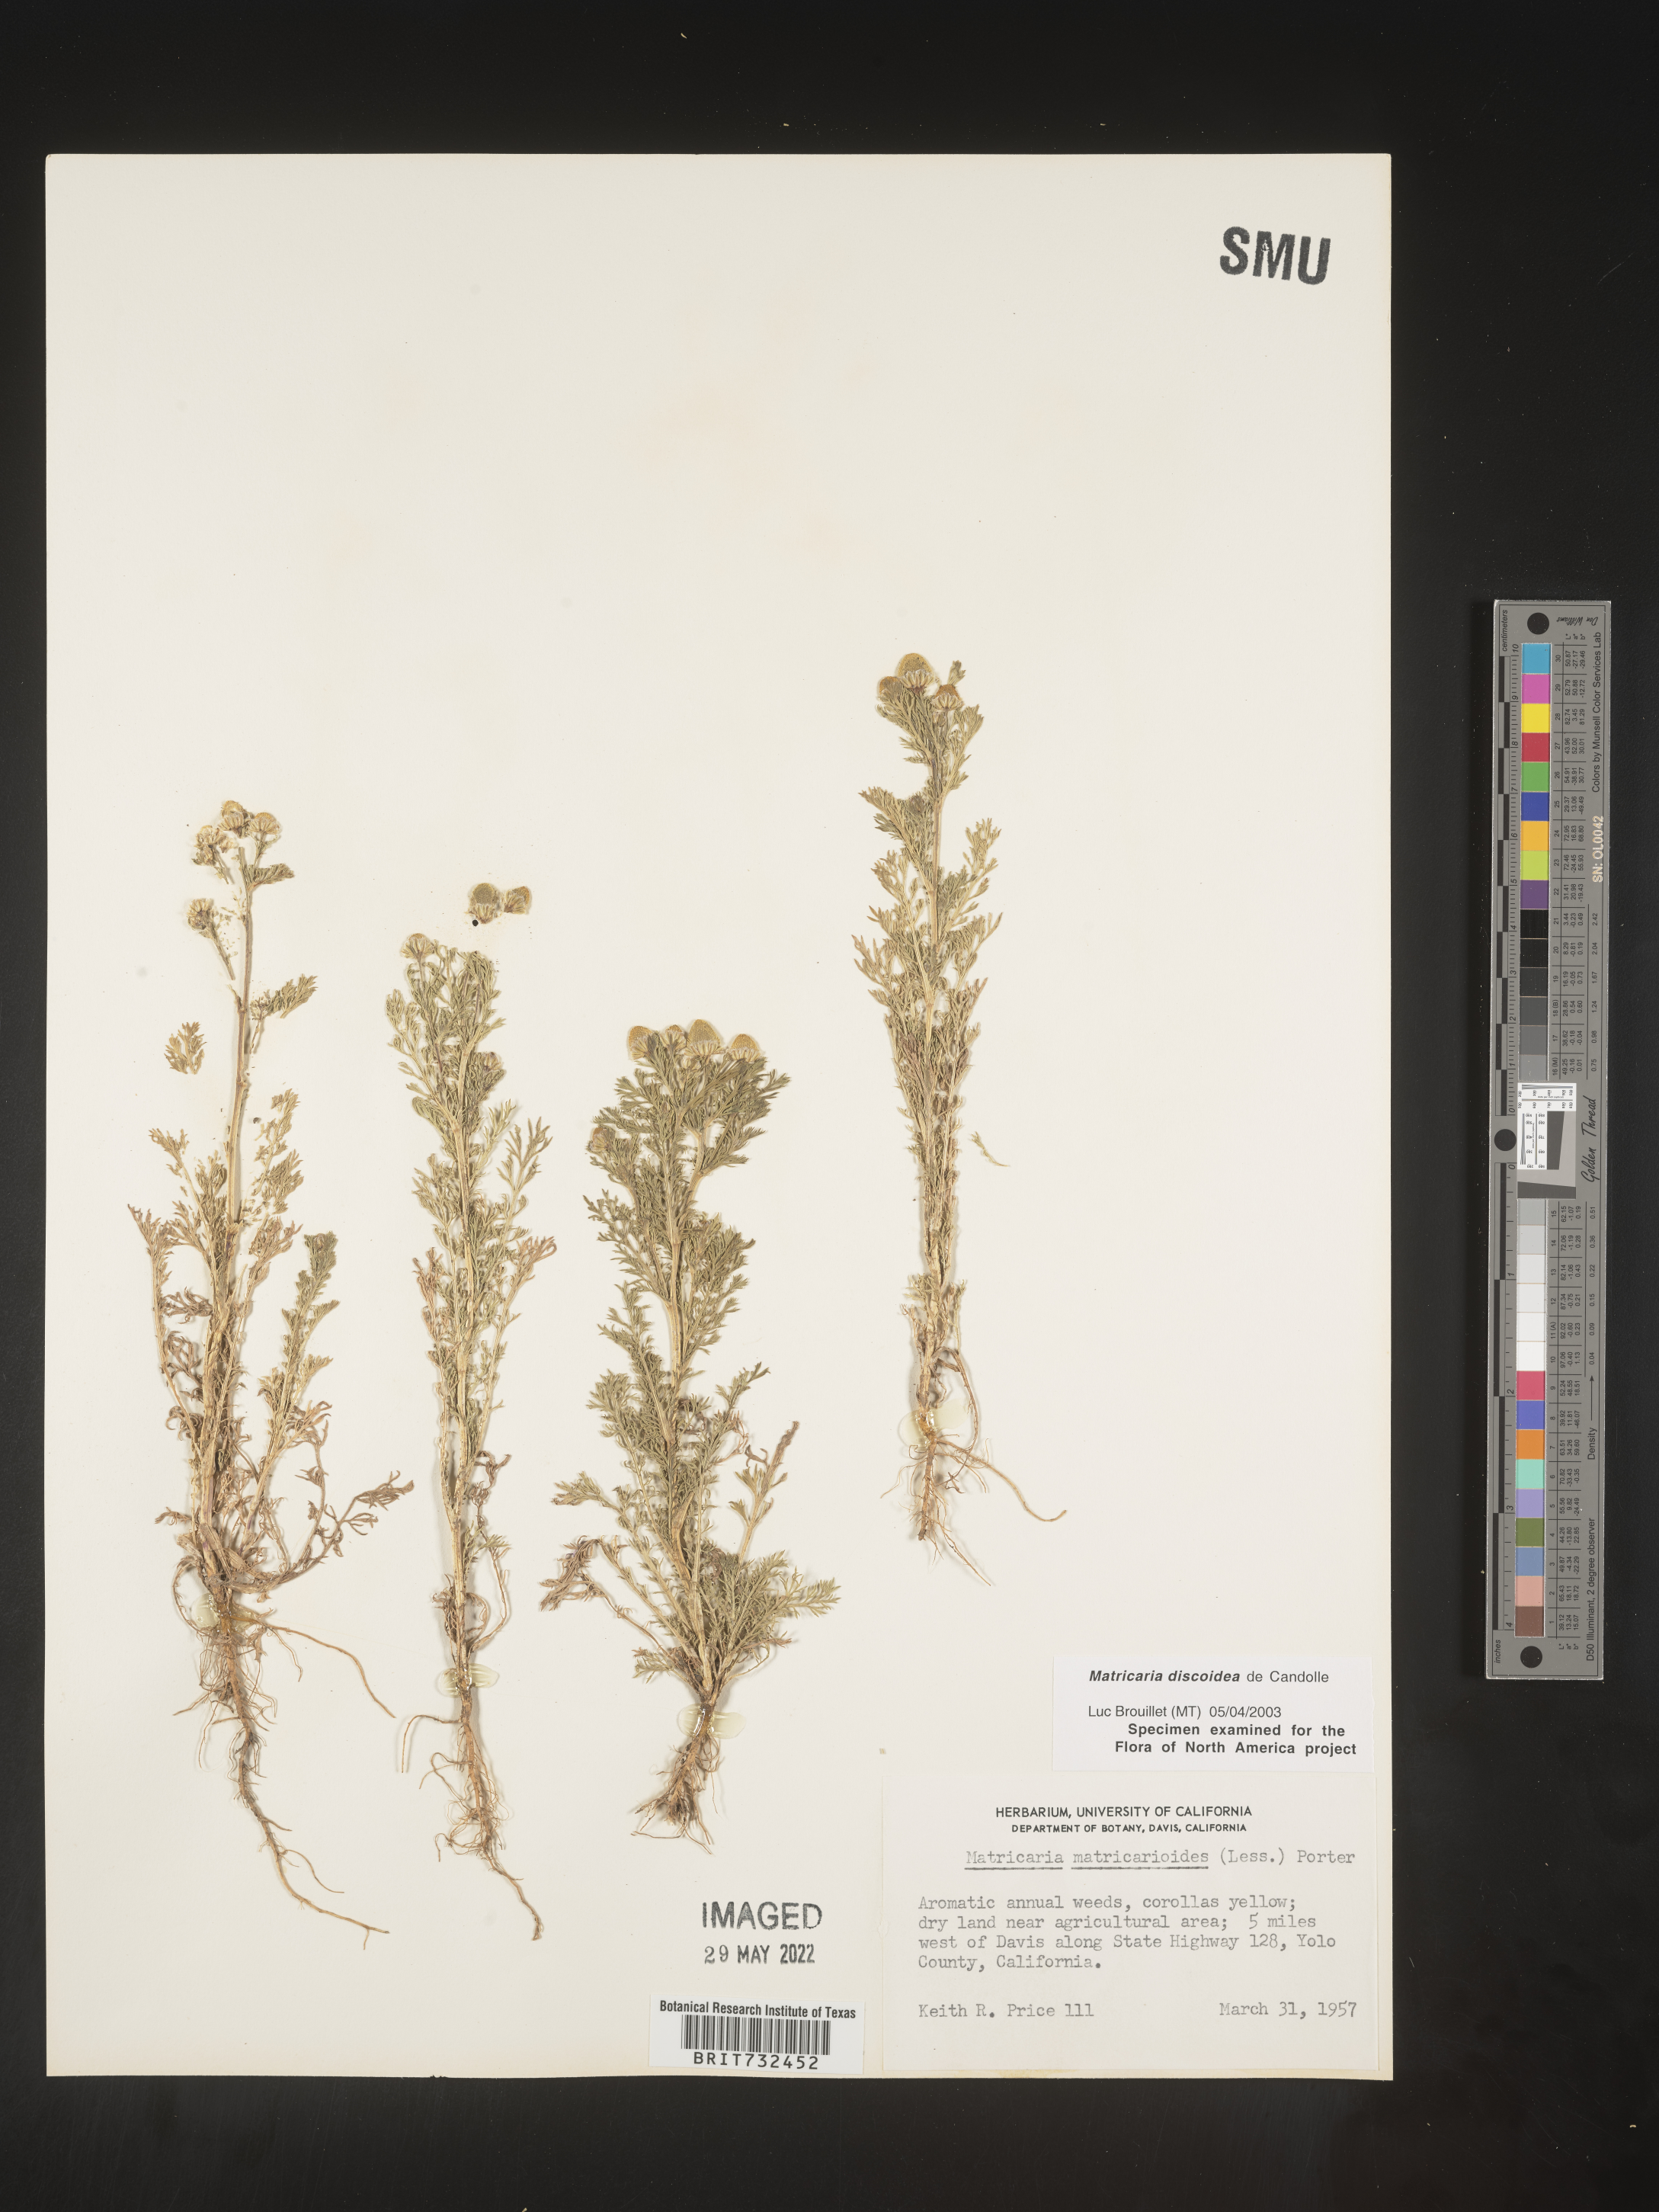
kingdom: Plantae
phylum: Tracheophyta
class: Magnoliopsida
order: Asterales
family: Asteraceae
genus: Matricaria
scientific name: Matricaria discoidea
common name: Disc mayweed
